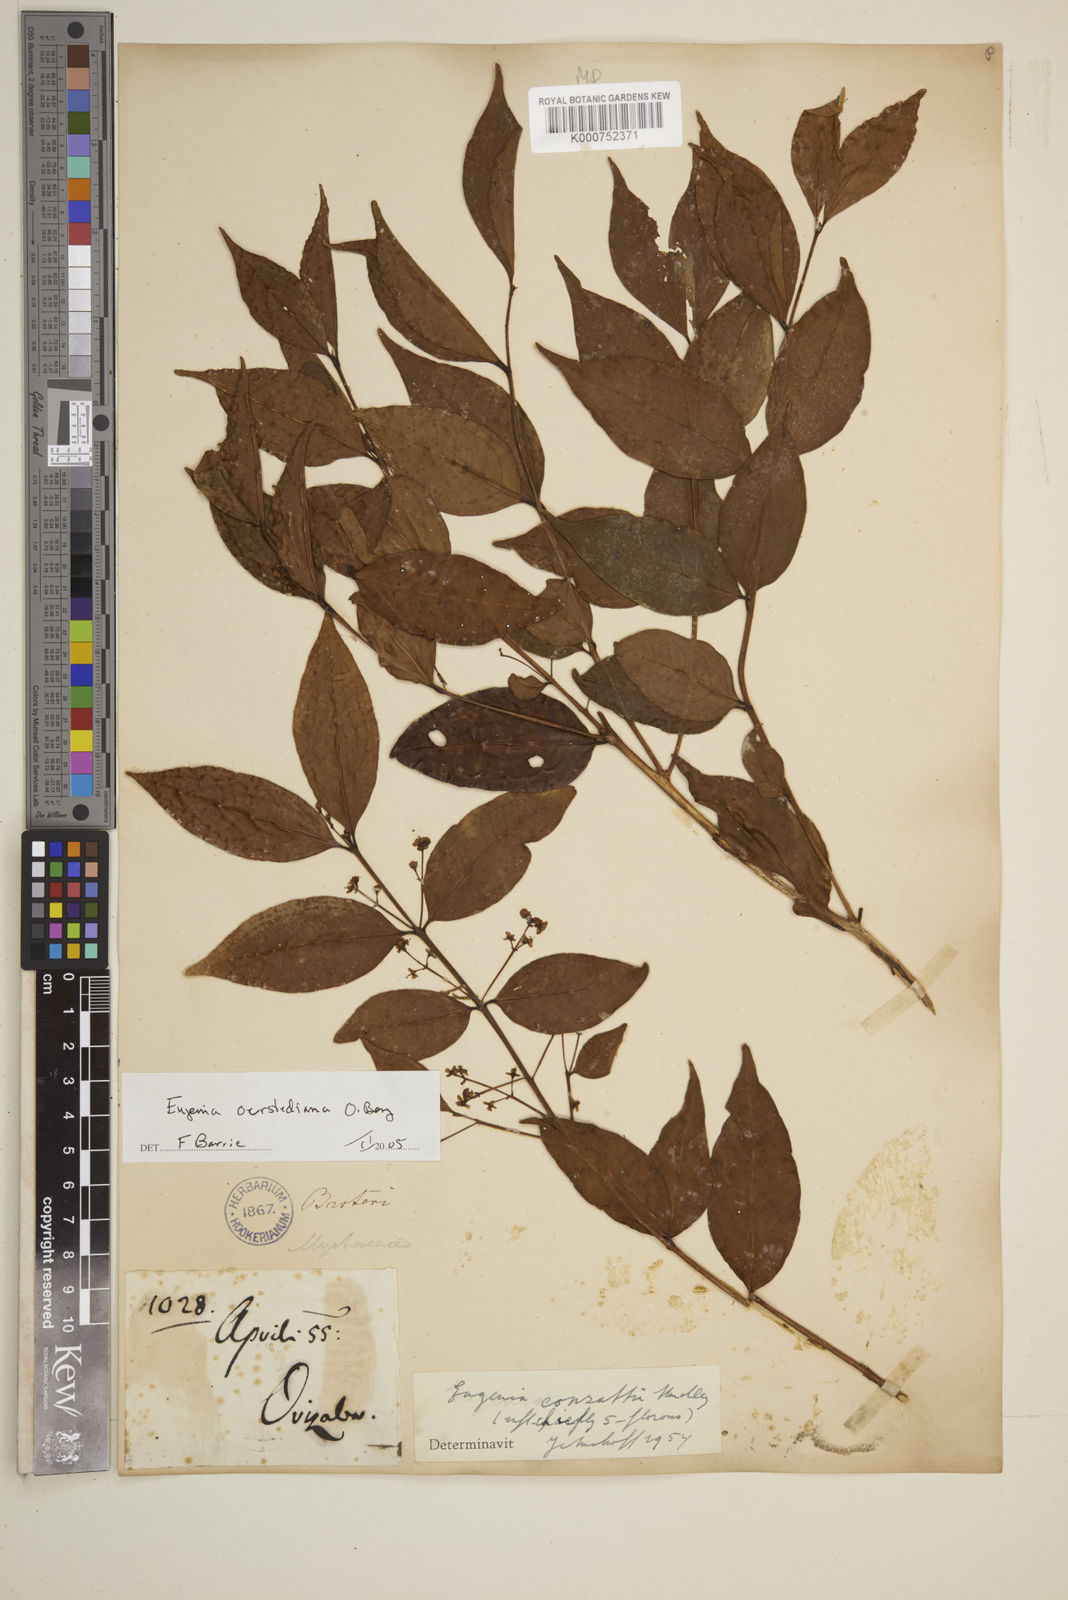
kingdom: Plantae
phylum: Tracheophyta
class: Magnoliopsida
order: Myrtales
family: Myrtaceae
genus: Eugenia
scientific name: Eugenia oerstediana
